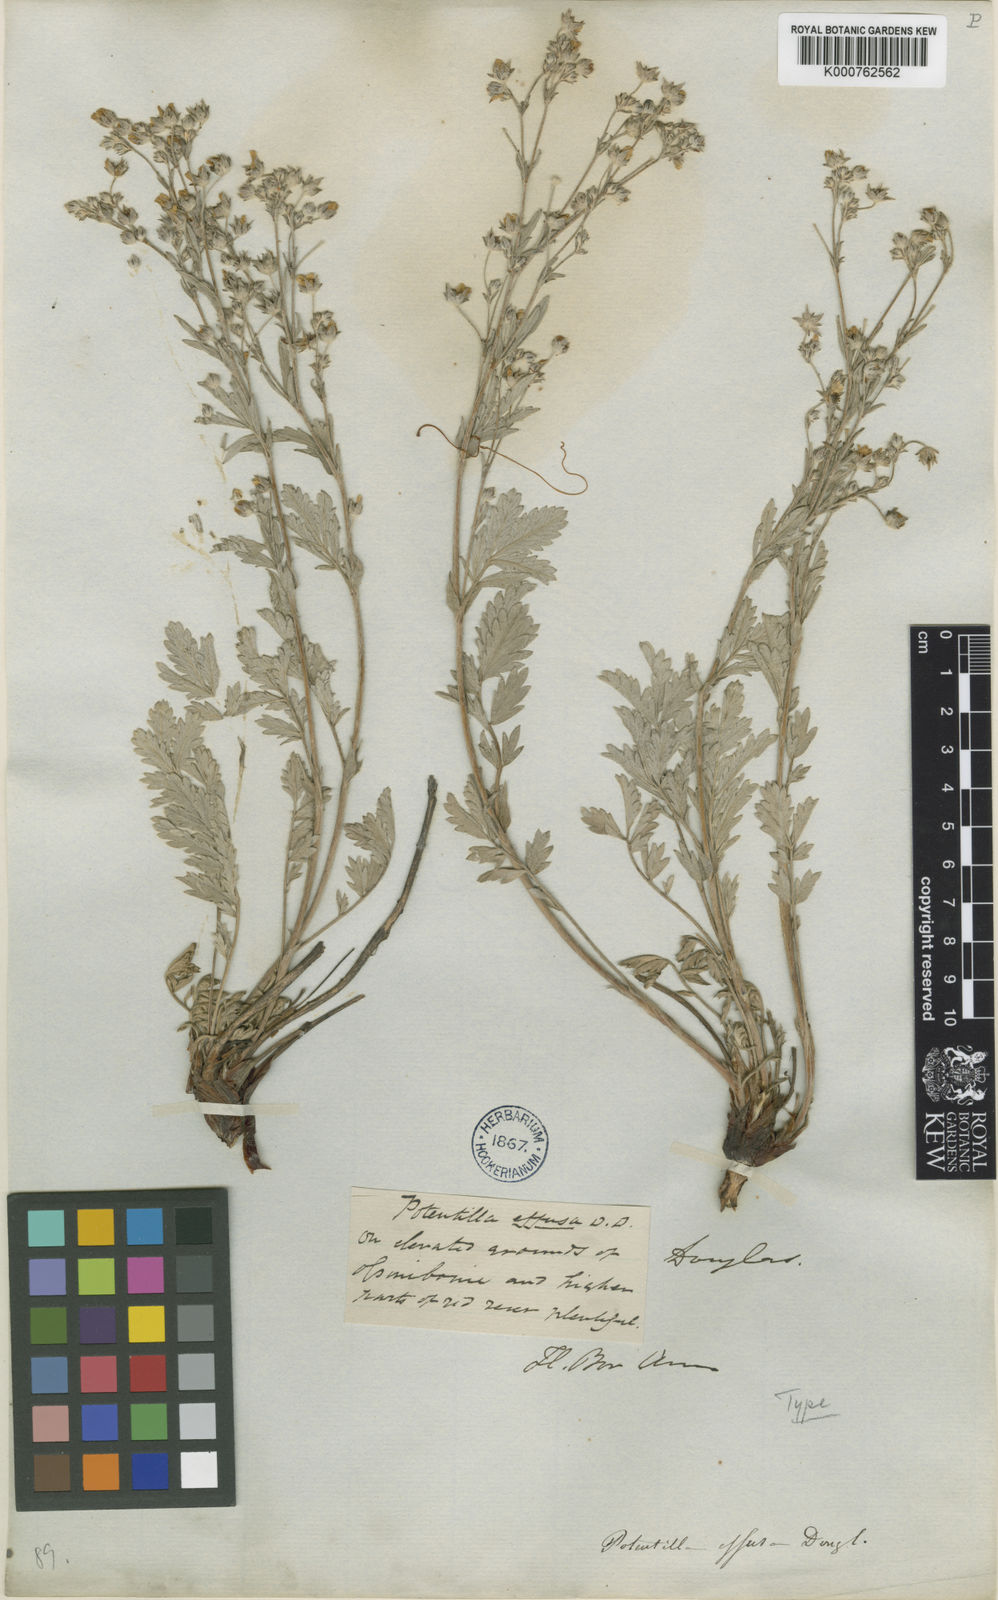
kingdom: Plantae
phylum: Tracheophyta
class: Magnoliopsida
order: Rosales
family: Rosaceae
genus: Potentilla
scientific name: Potentilla
